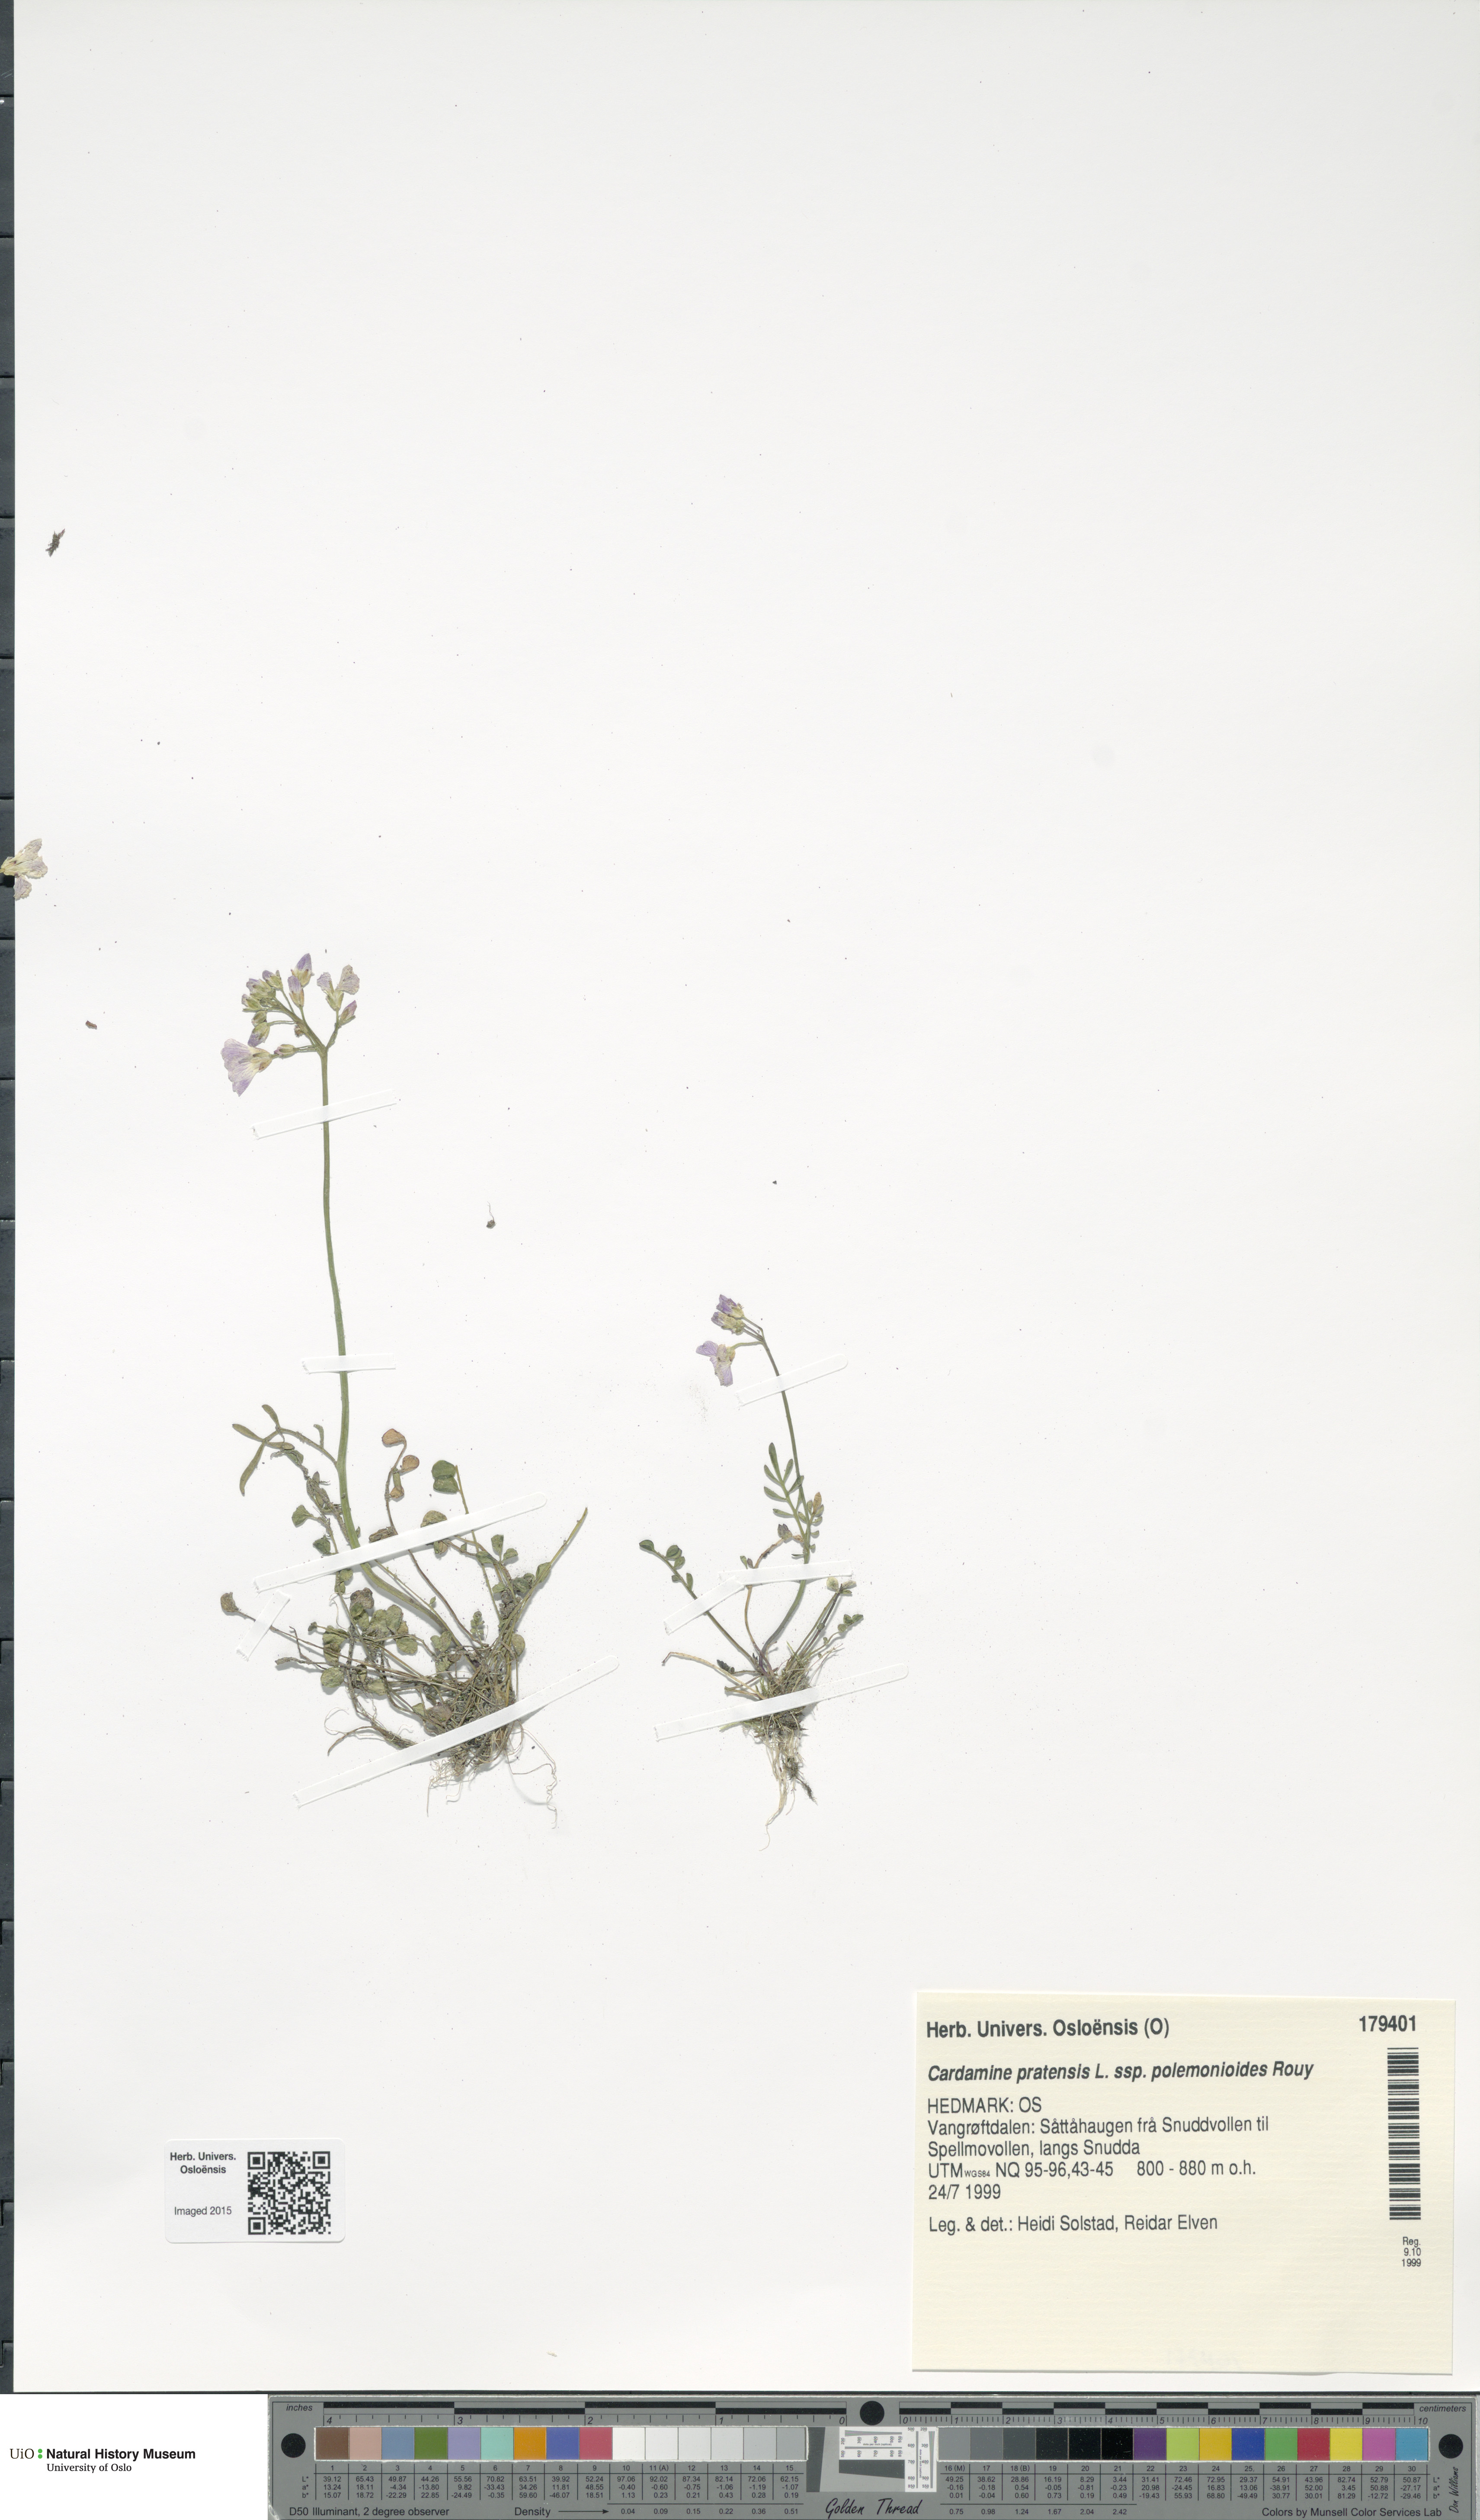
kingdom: Plantae
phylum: Tracheophyta
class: Magnoliopsida
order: Brassicales
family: Brassicaceae
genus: Cardamine
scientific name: Cardamine nymanii
